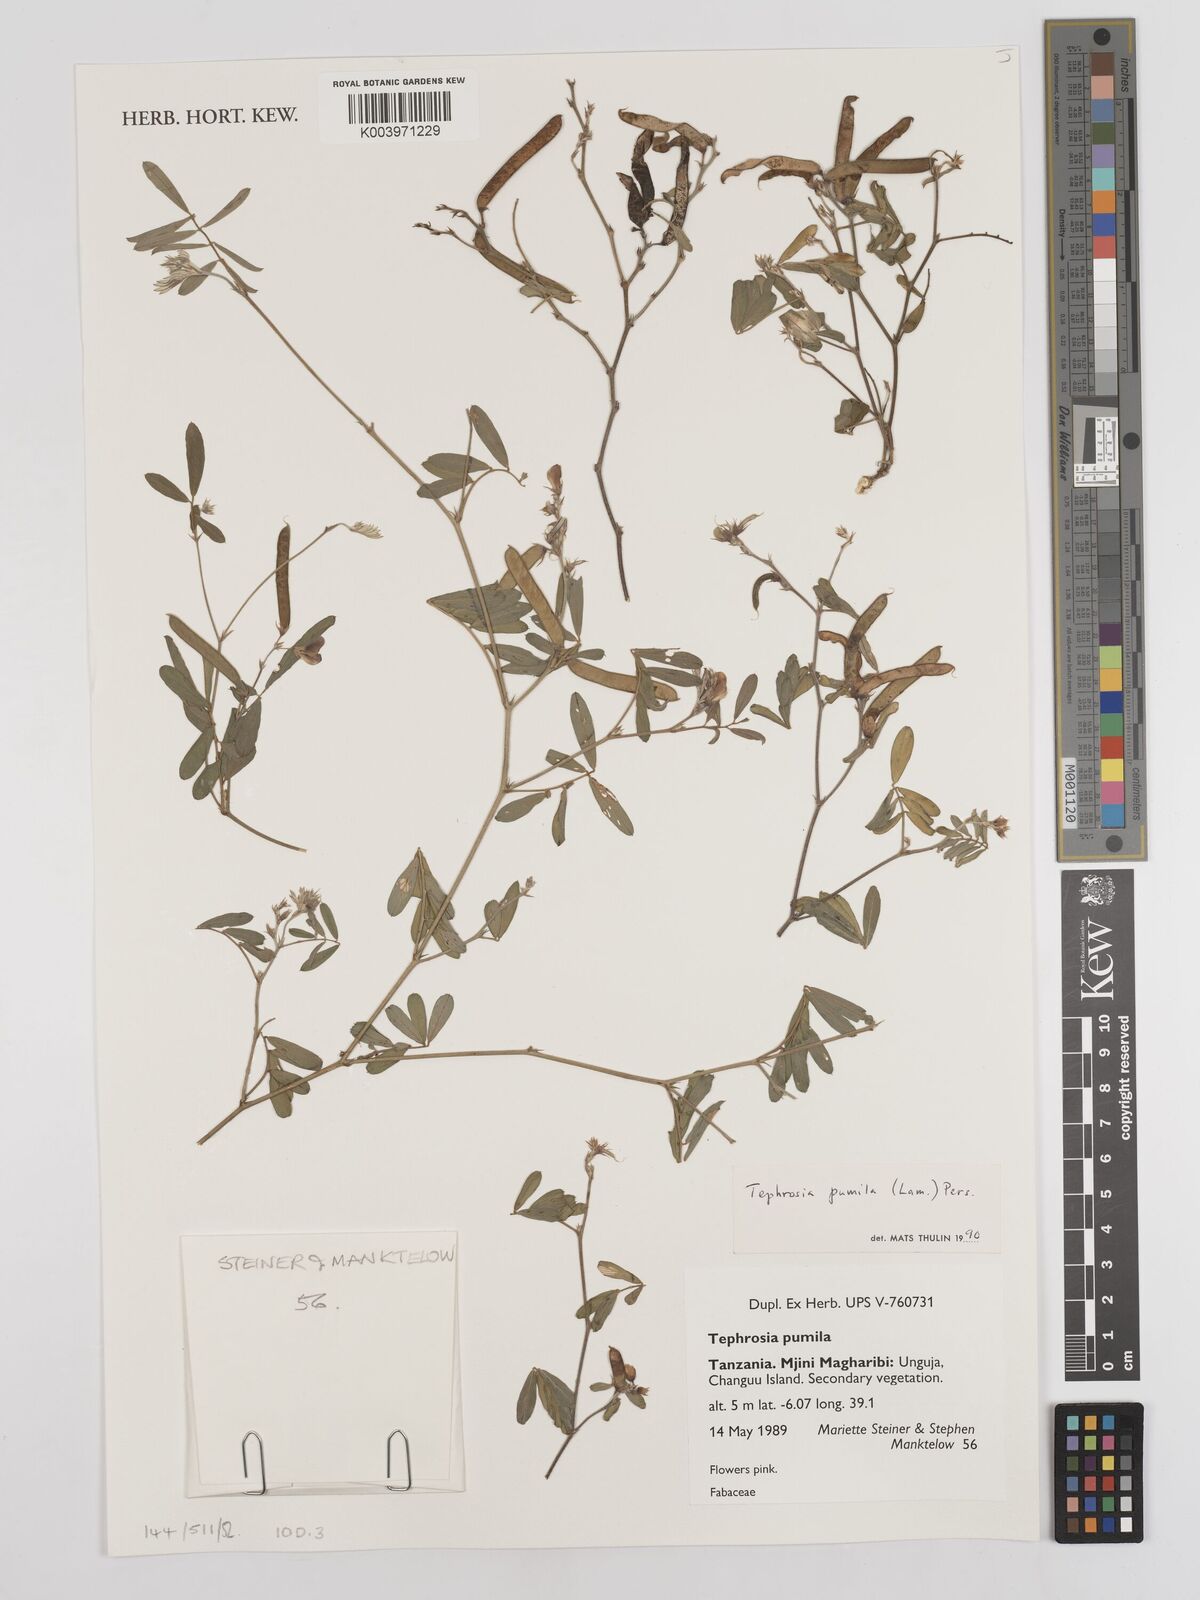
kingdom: Plantae
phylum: Tracheophyta
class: Magnoliopsida
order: Fabales
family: Fabaceae
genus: Tephrosia
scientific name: Tephrosia pumila
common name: Indigo sauvage
